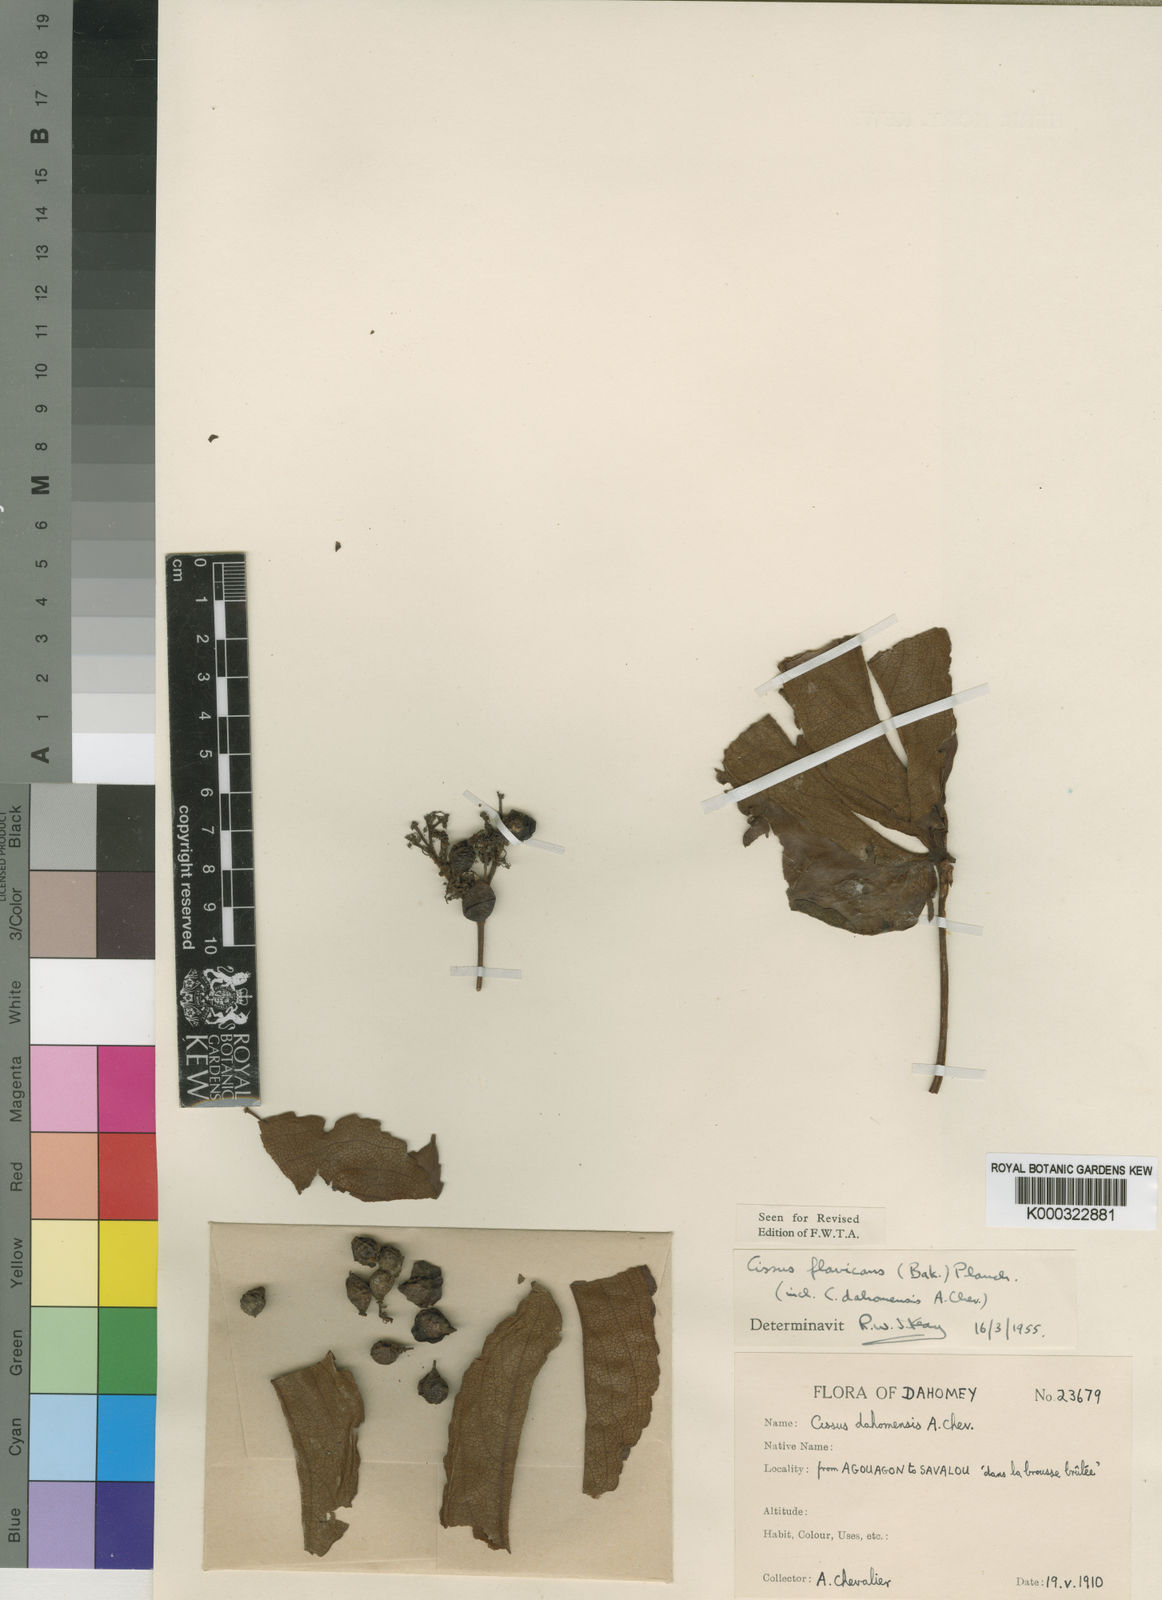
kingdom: Plantae
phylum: Tracheophyta
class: Magnoliopsida
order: Vitales
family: Vitaceae
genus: Cyphostemma
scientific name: Cyphostemma
